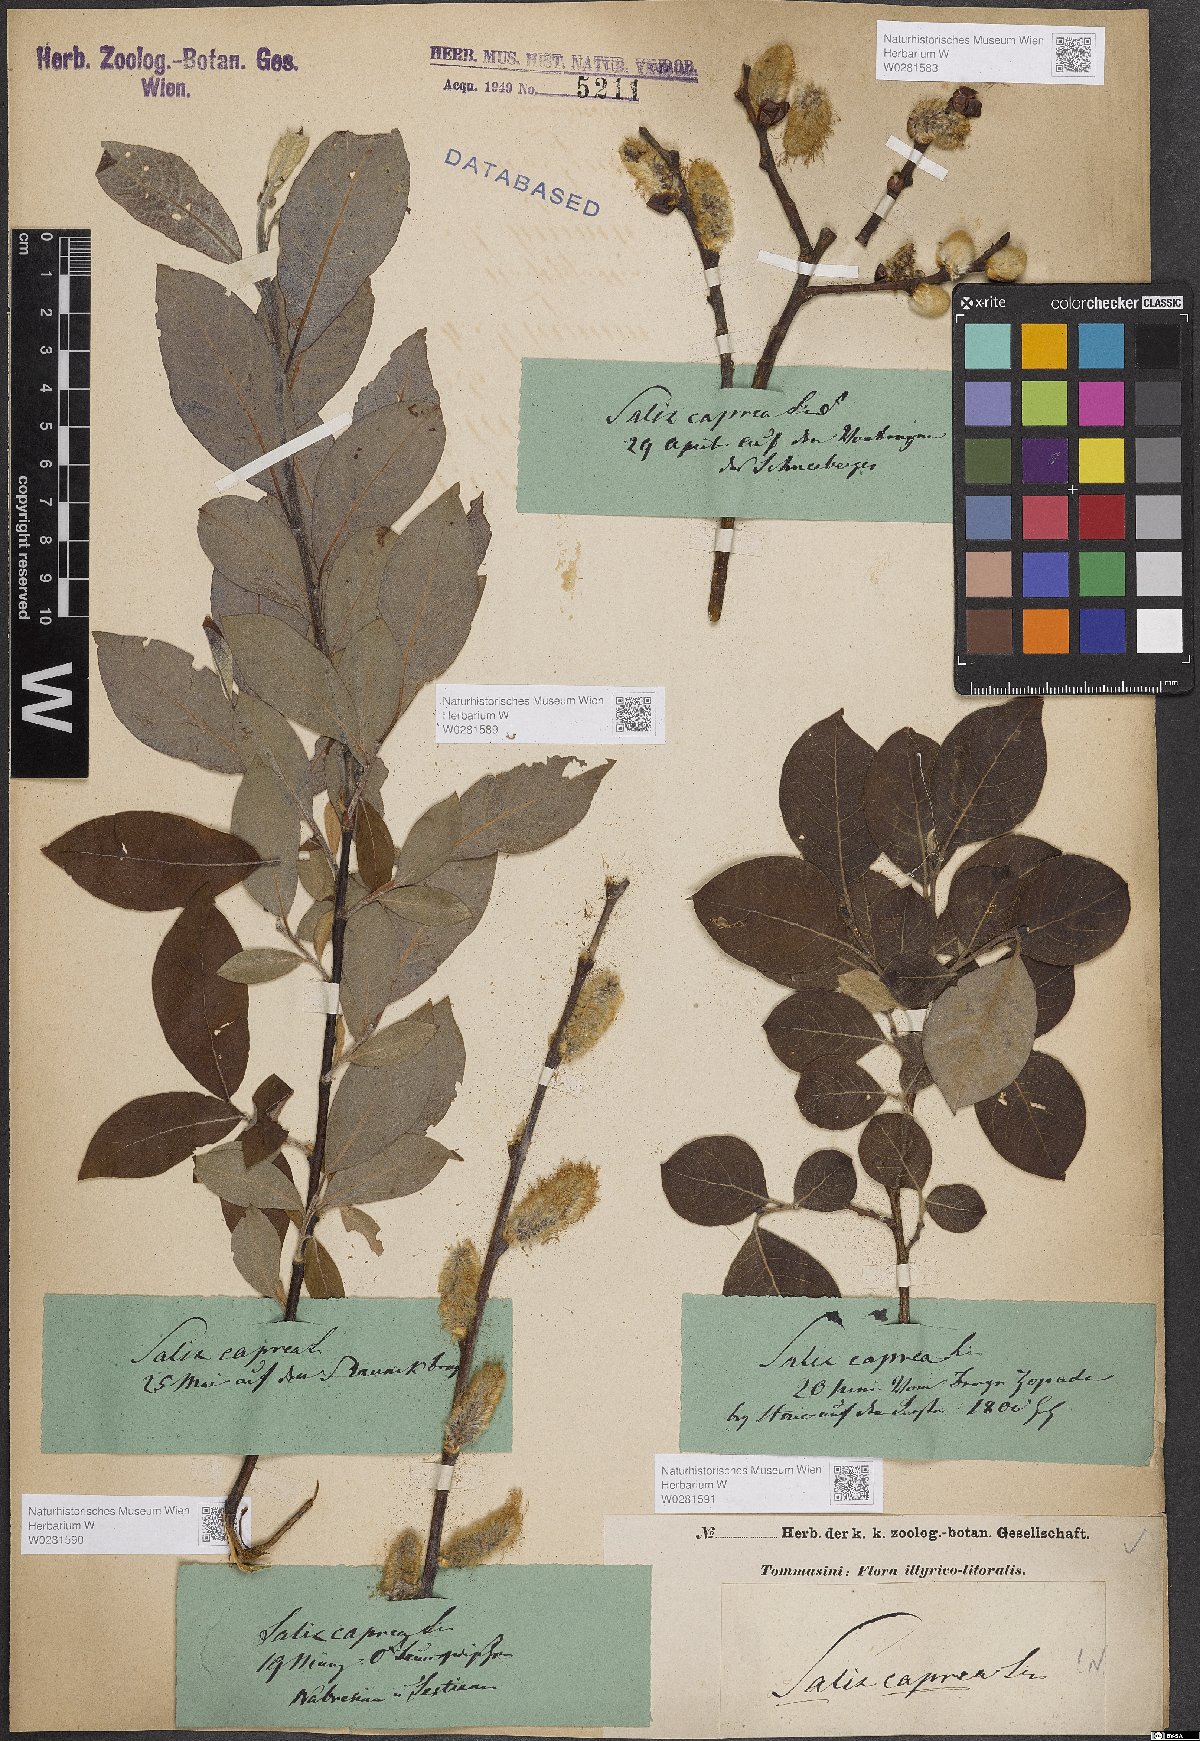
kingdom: Plantae
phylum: Tracheophyta
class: Magnoliopsida
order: Malpighiales
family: Salicaceae
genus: Salix
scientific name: Salix caprea
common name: Goat willow
